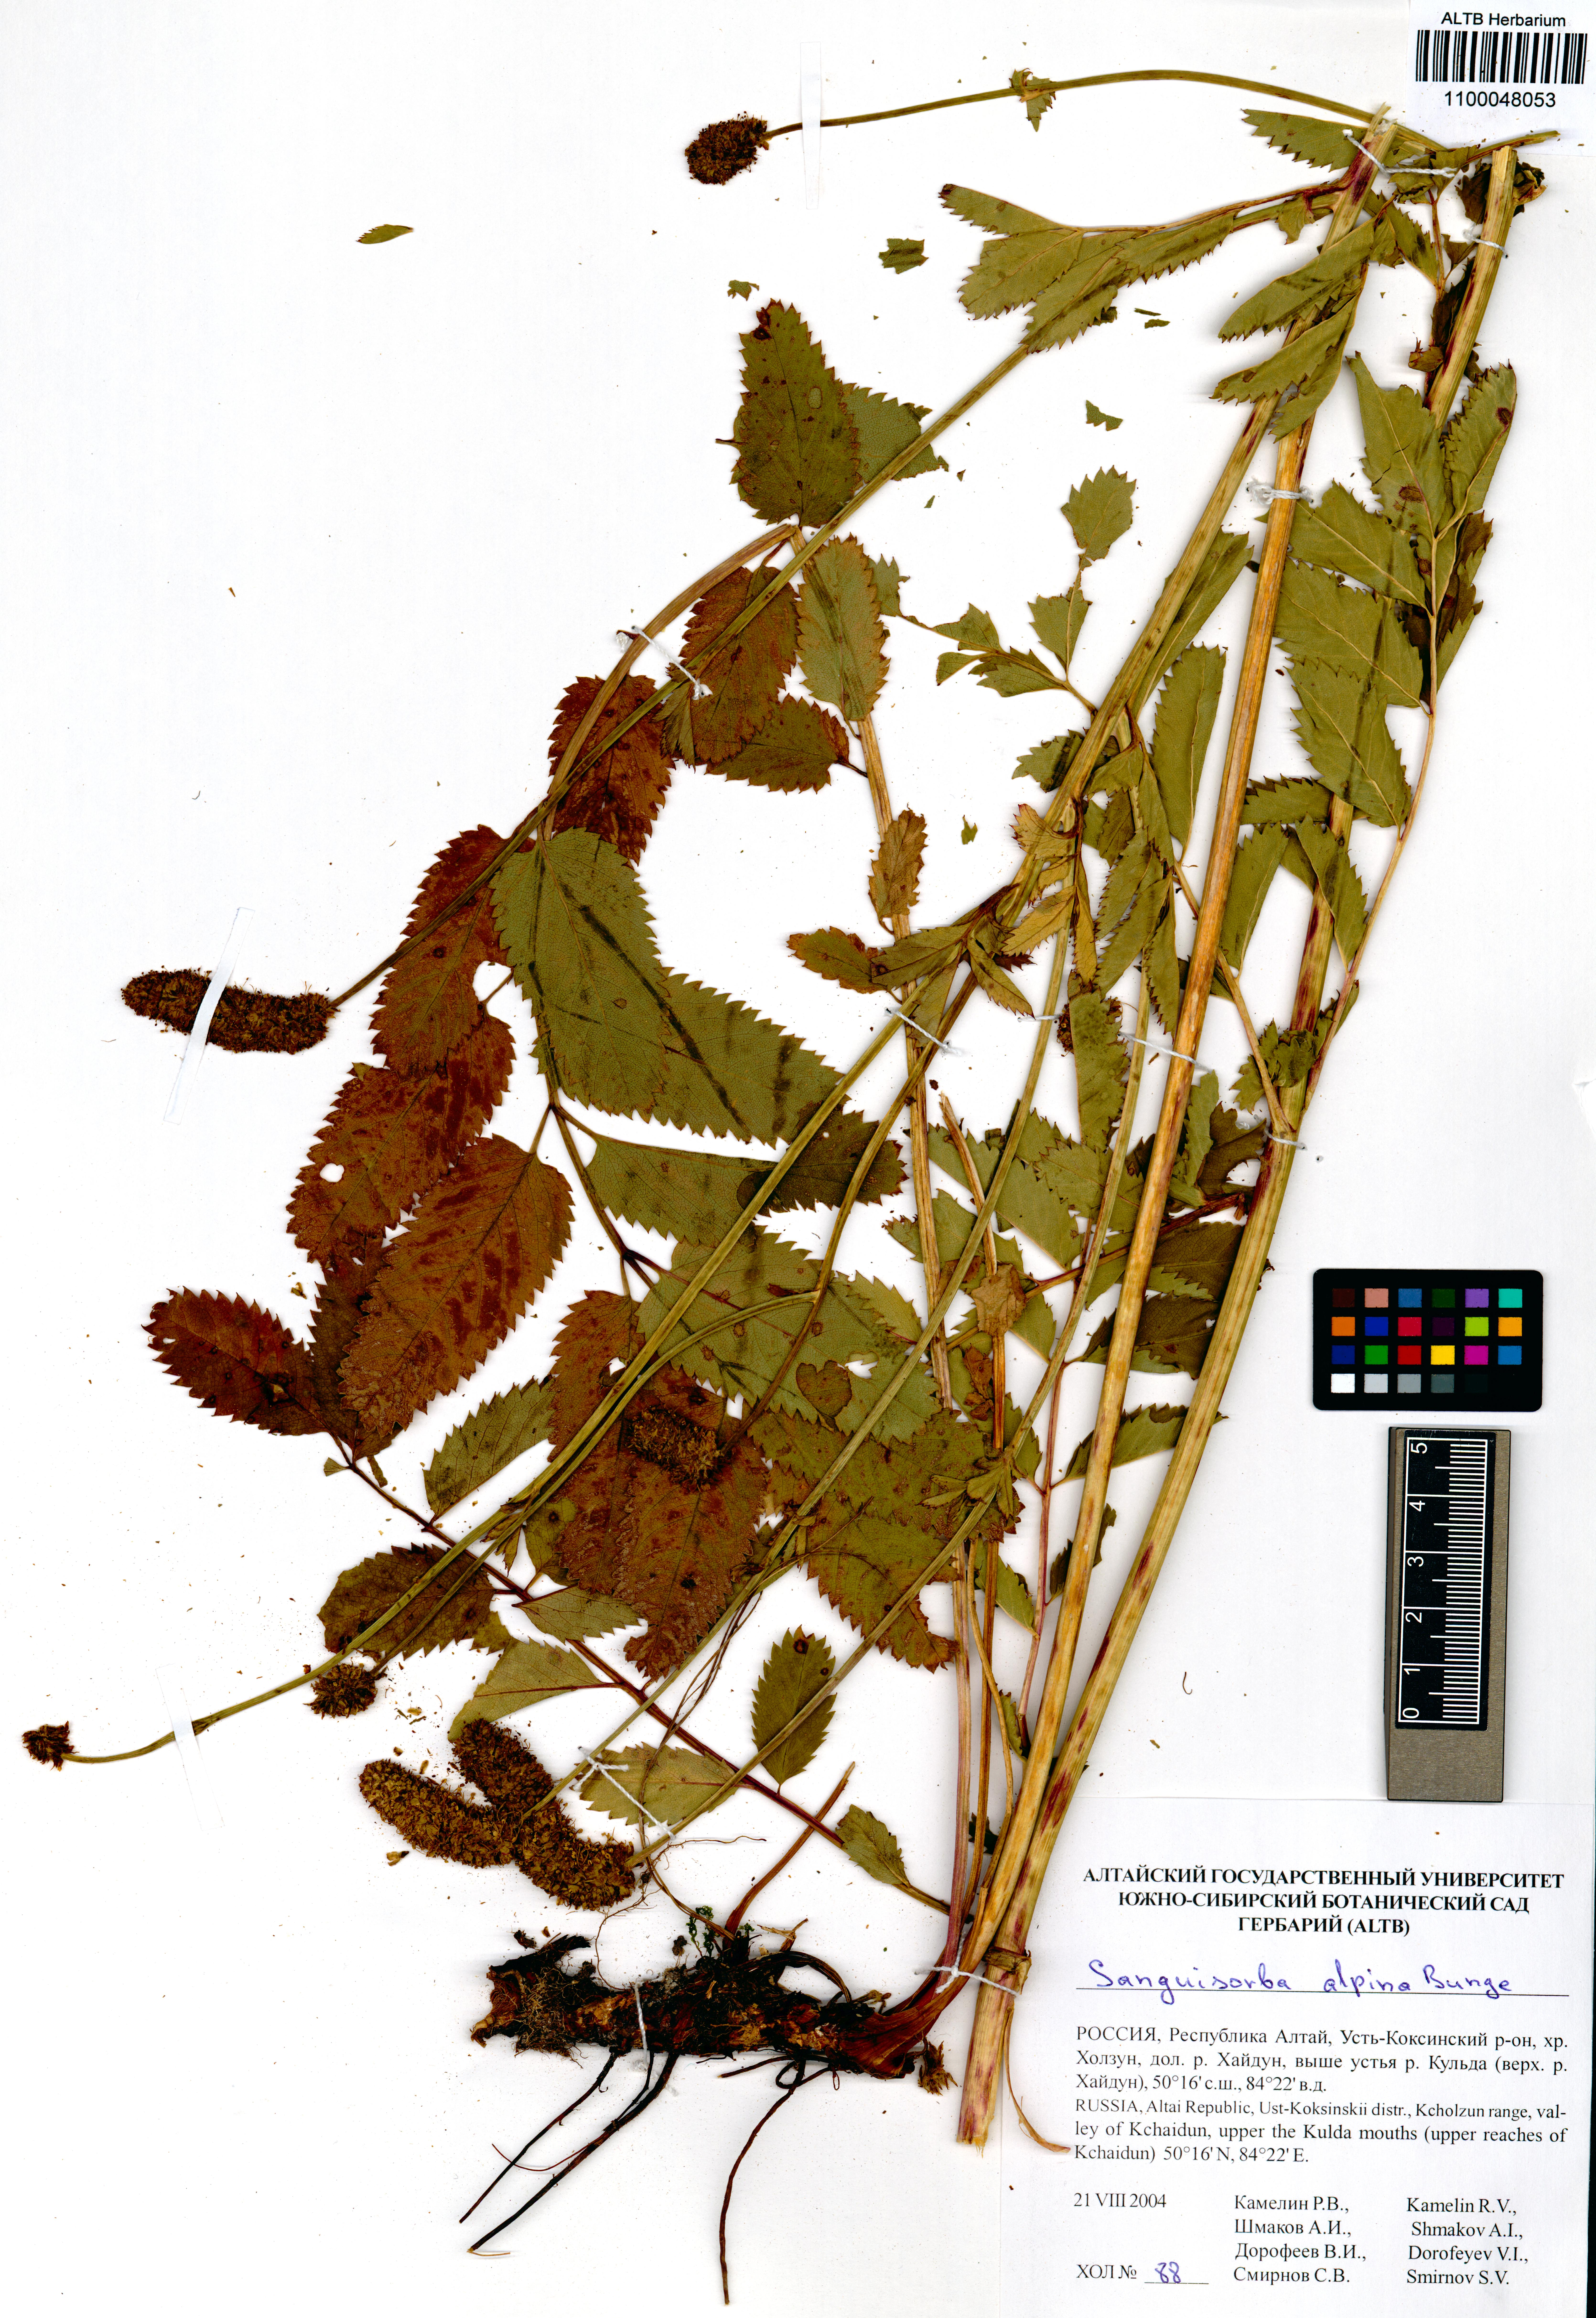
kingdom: Plantae
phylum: Tracheophyta
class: Magnoliopsida
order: Rosales
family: Rosaceae
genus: Sanguisorba
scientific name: Sanguisorba alpina
